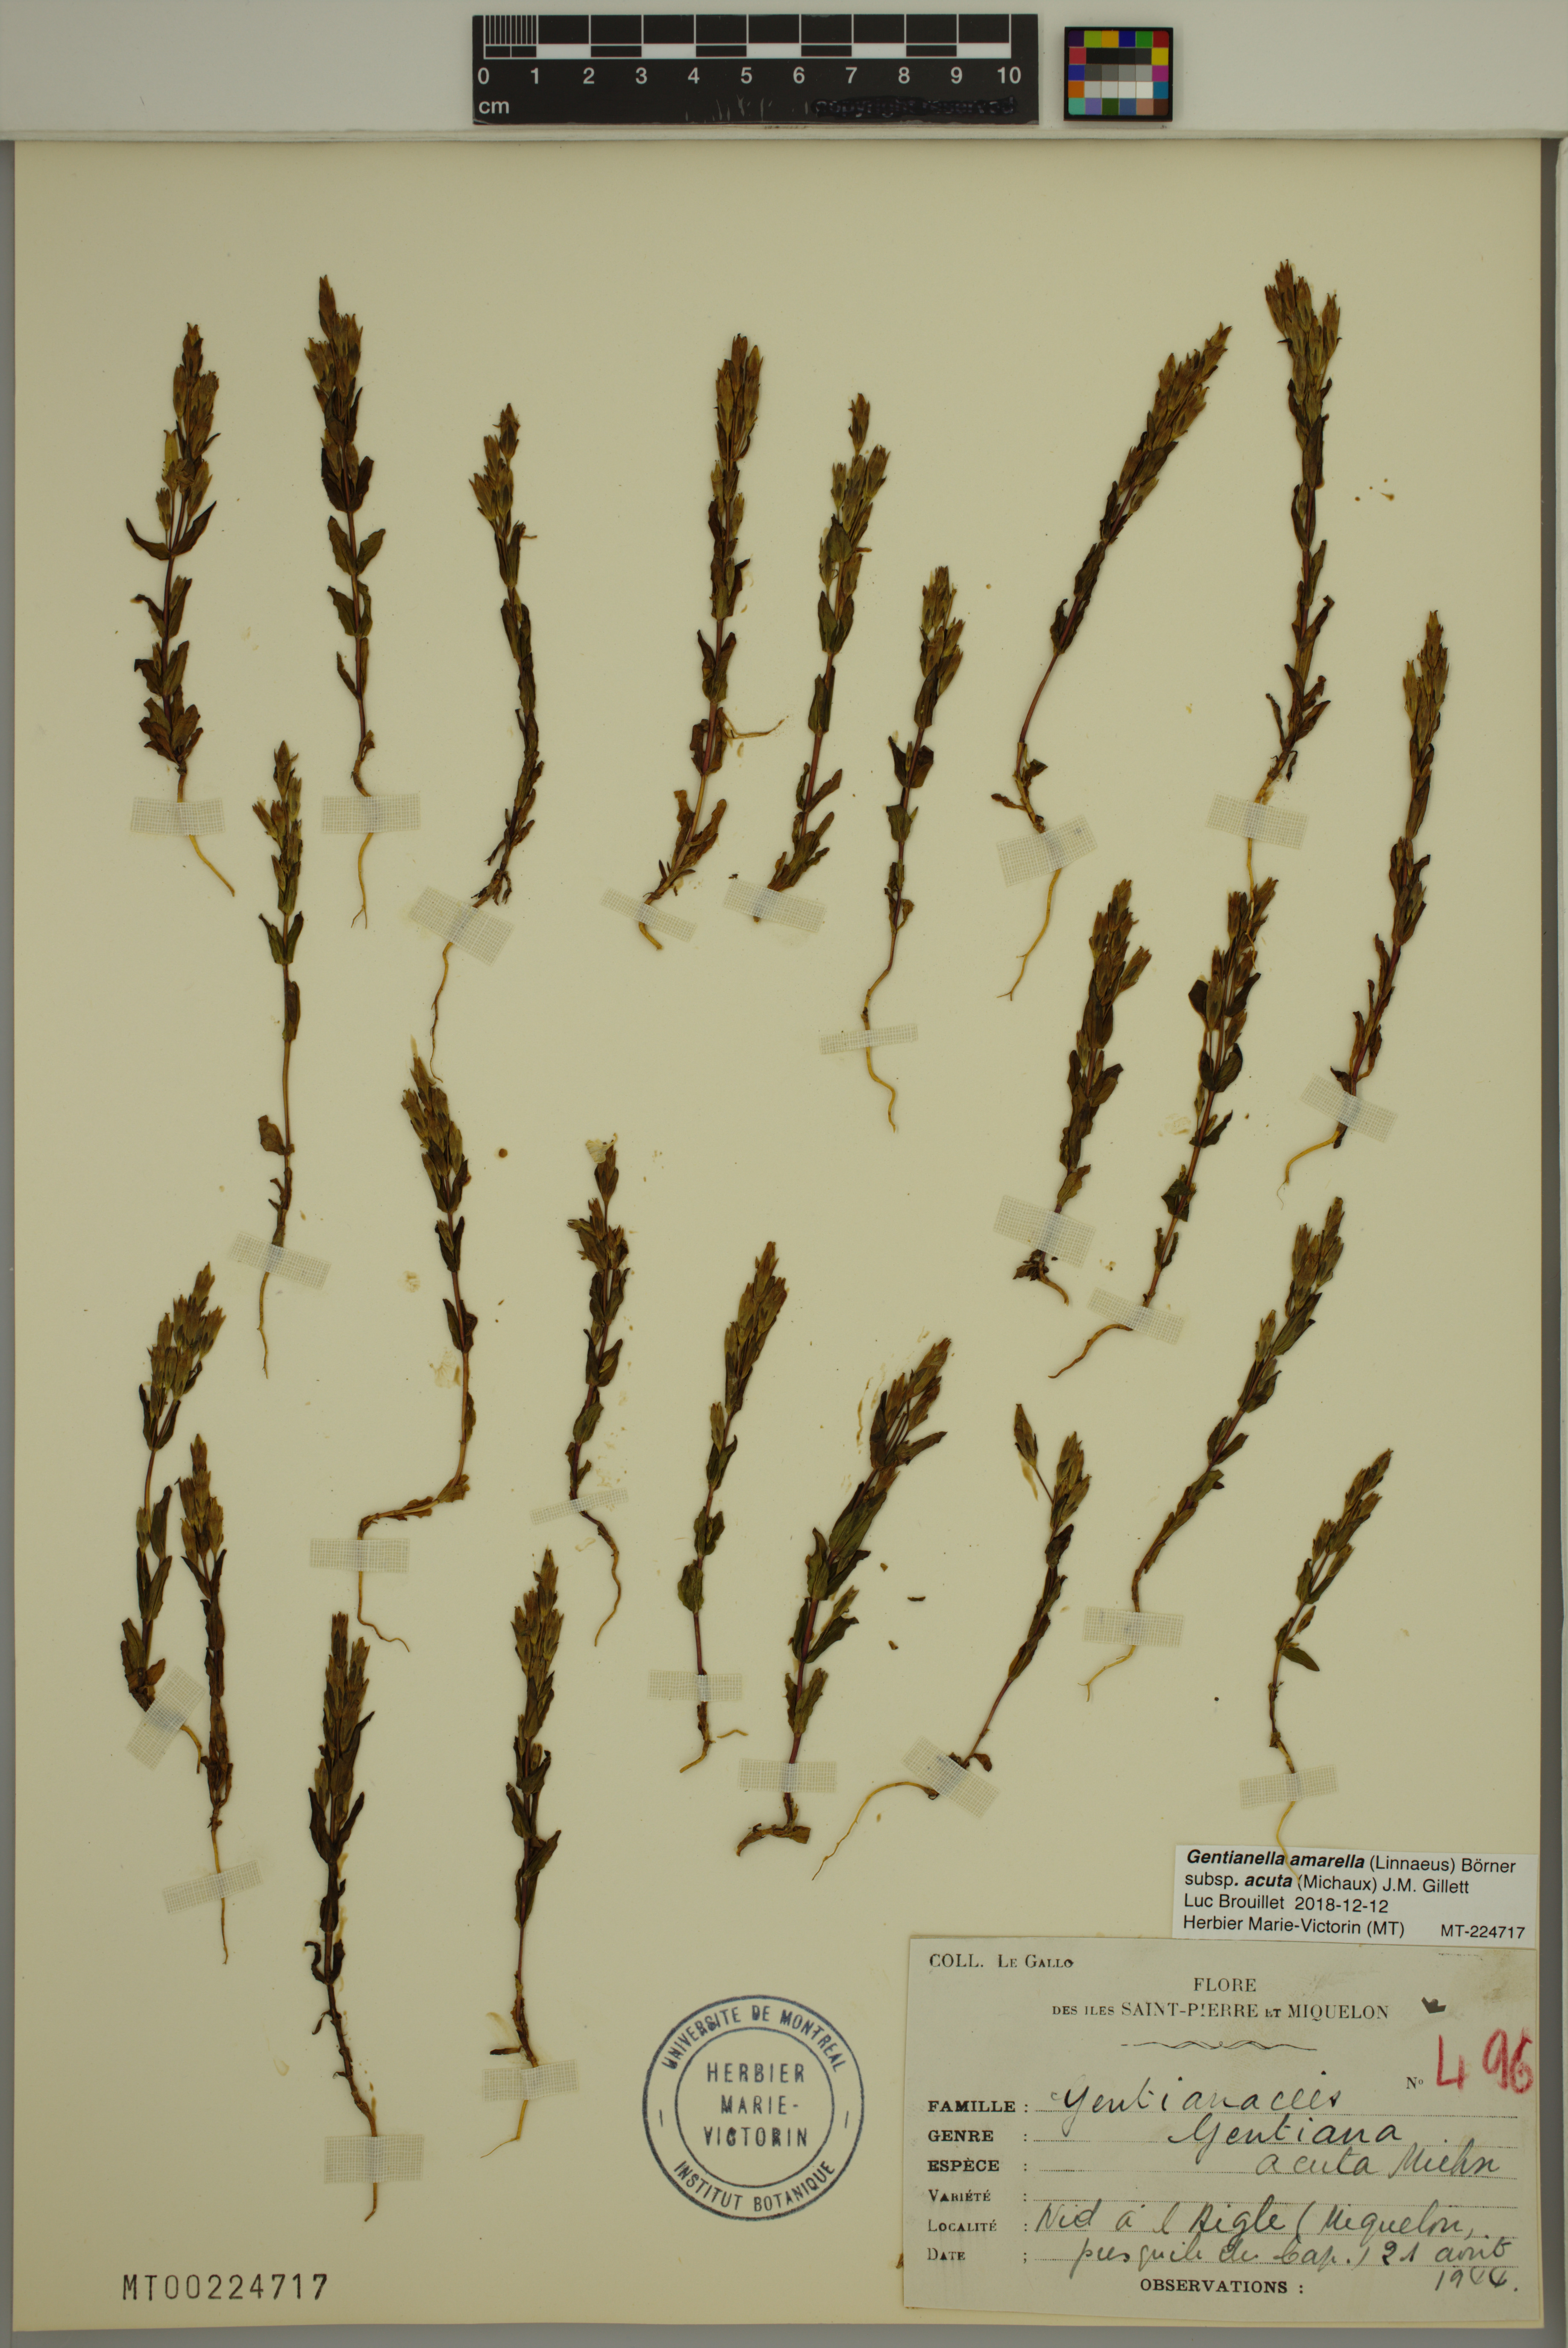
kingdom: Plantae
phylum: Tracheophyta
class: Magnoliopsida
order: Gentianales
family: Gentianaceae
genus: Gentianella
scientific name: Gentianella amarella
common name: Autumn gentian
